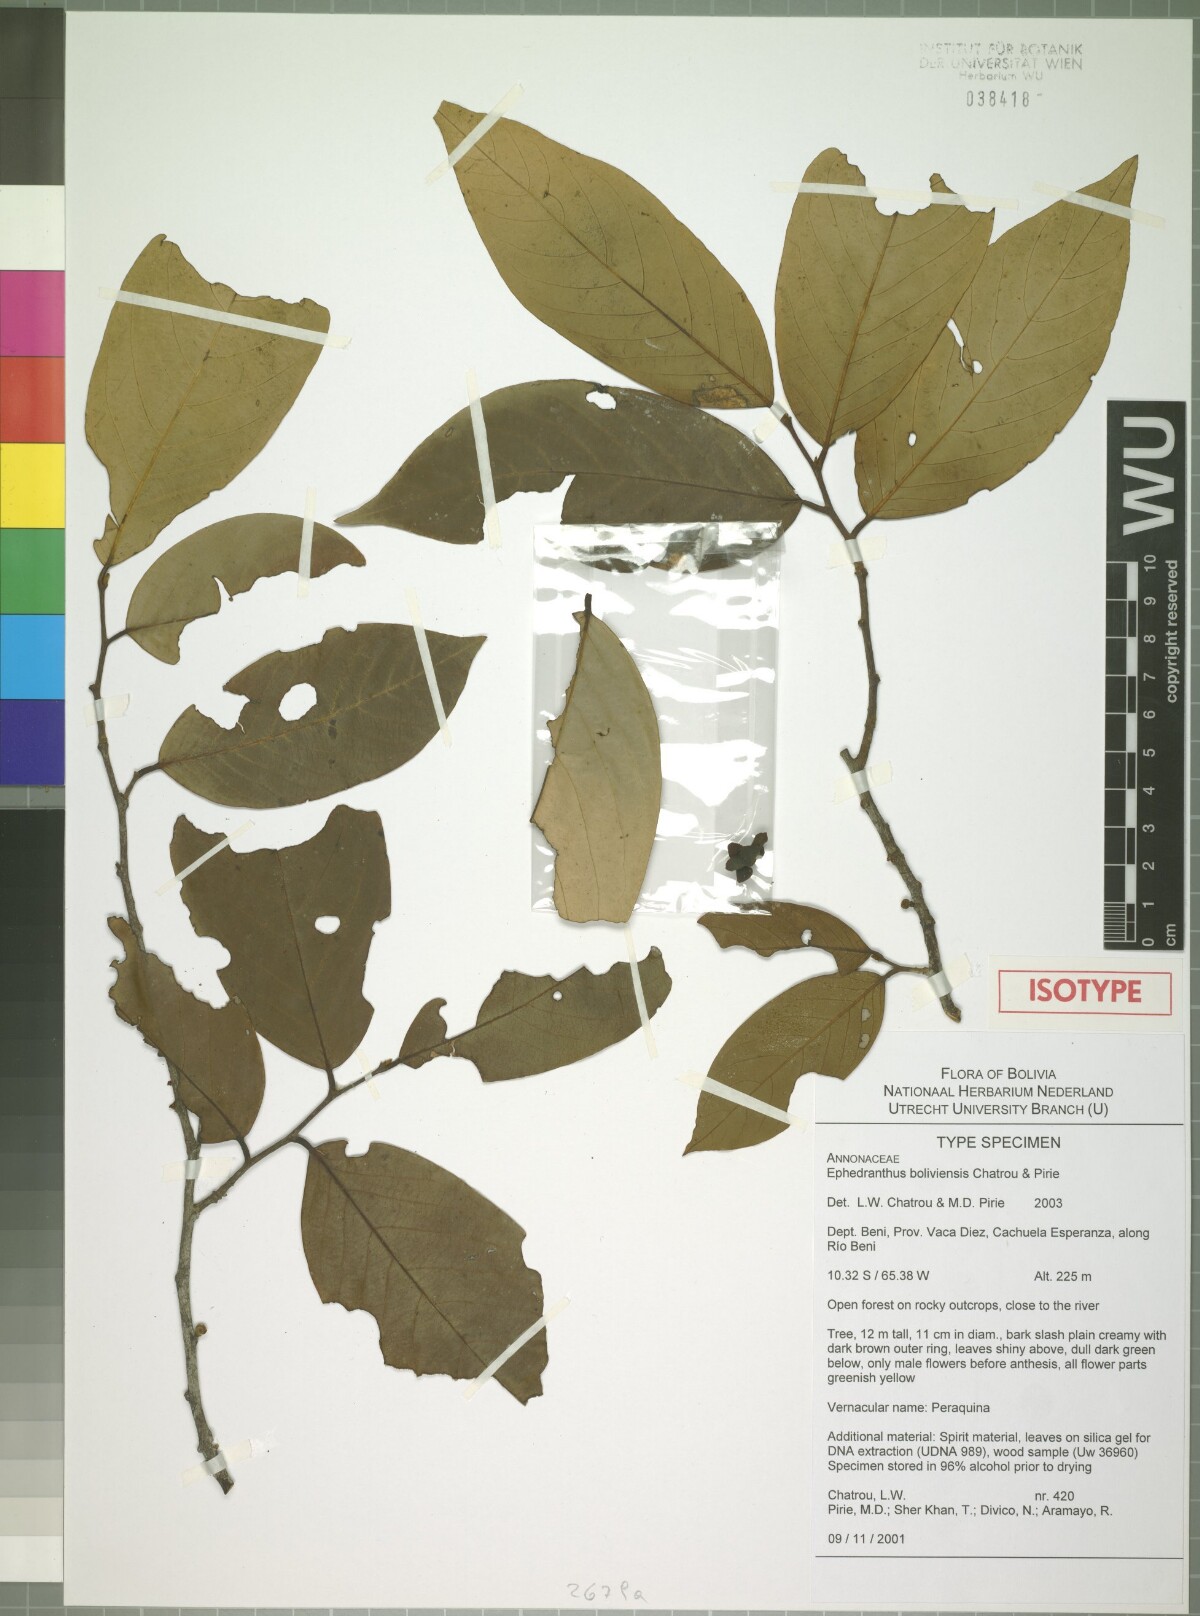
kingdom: Plantae
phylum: Tracheophyta
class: Magnoliopsida
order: Magnoliales
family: Annonaceae
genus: Ephedranthus
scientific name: Ephedranthus boliviensis
